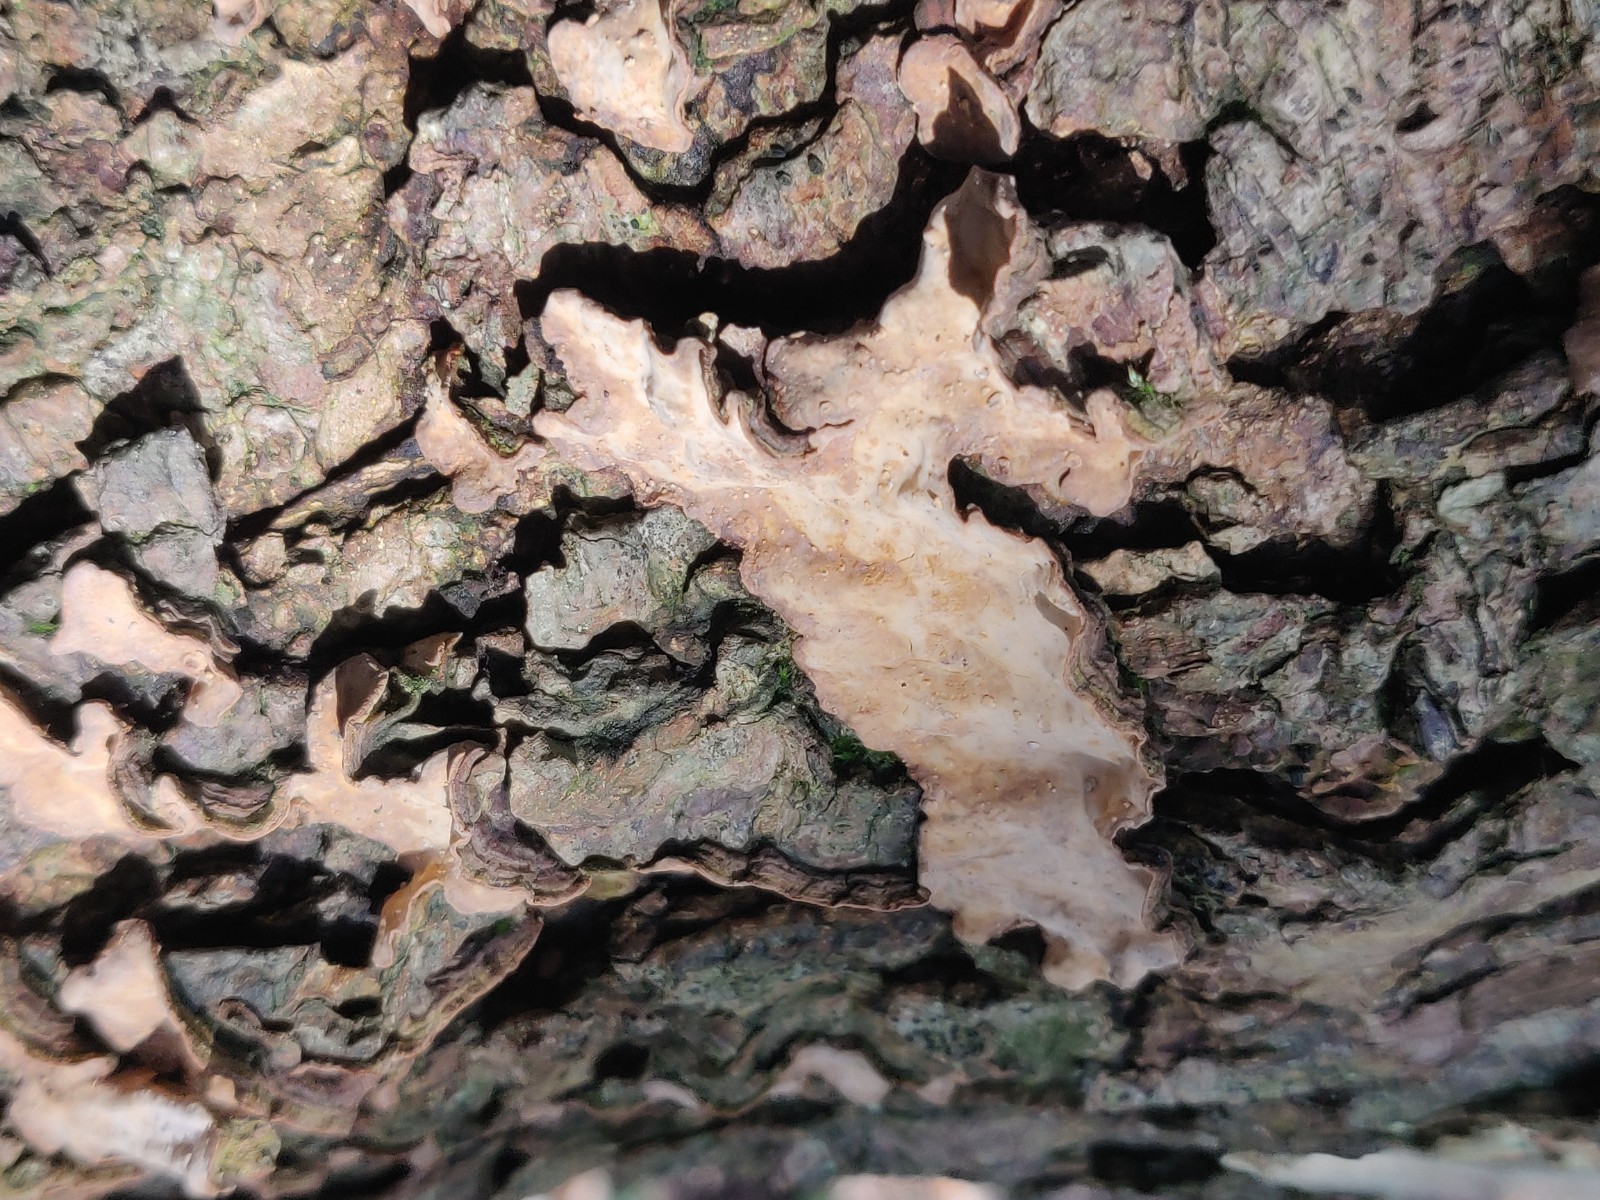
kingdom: Fungi
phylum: Basidiomycota
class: Agaricomycetes
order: Russulales
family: Stereaceae
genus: Stereum
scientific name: Stereum rugosum
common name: rynket lædersvamp
